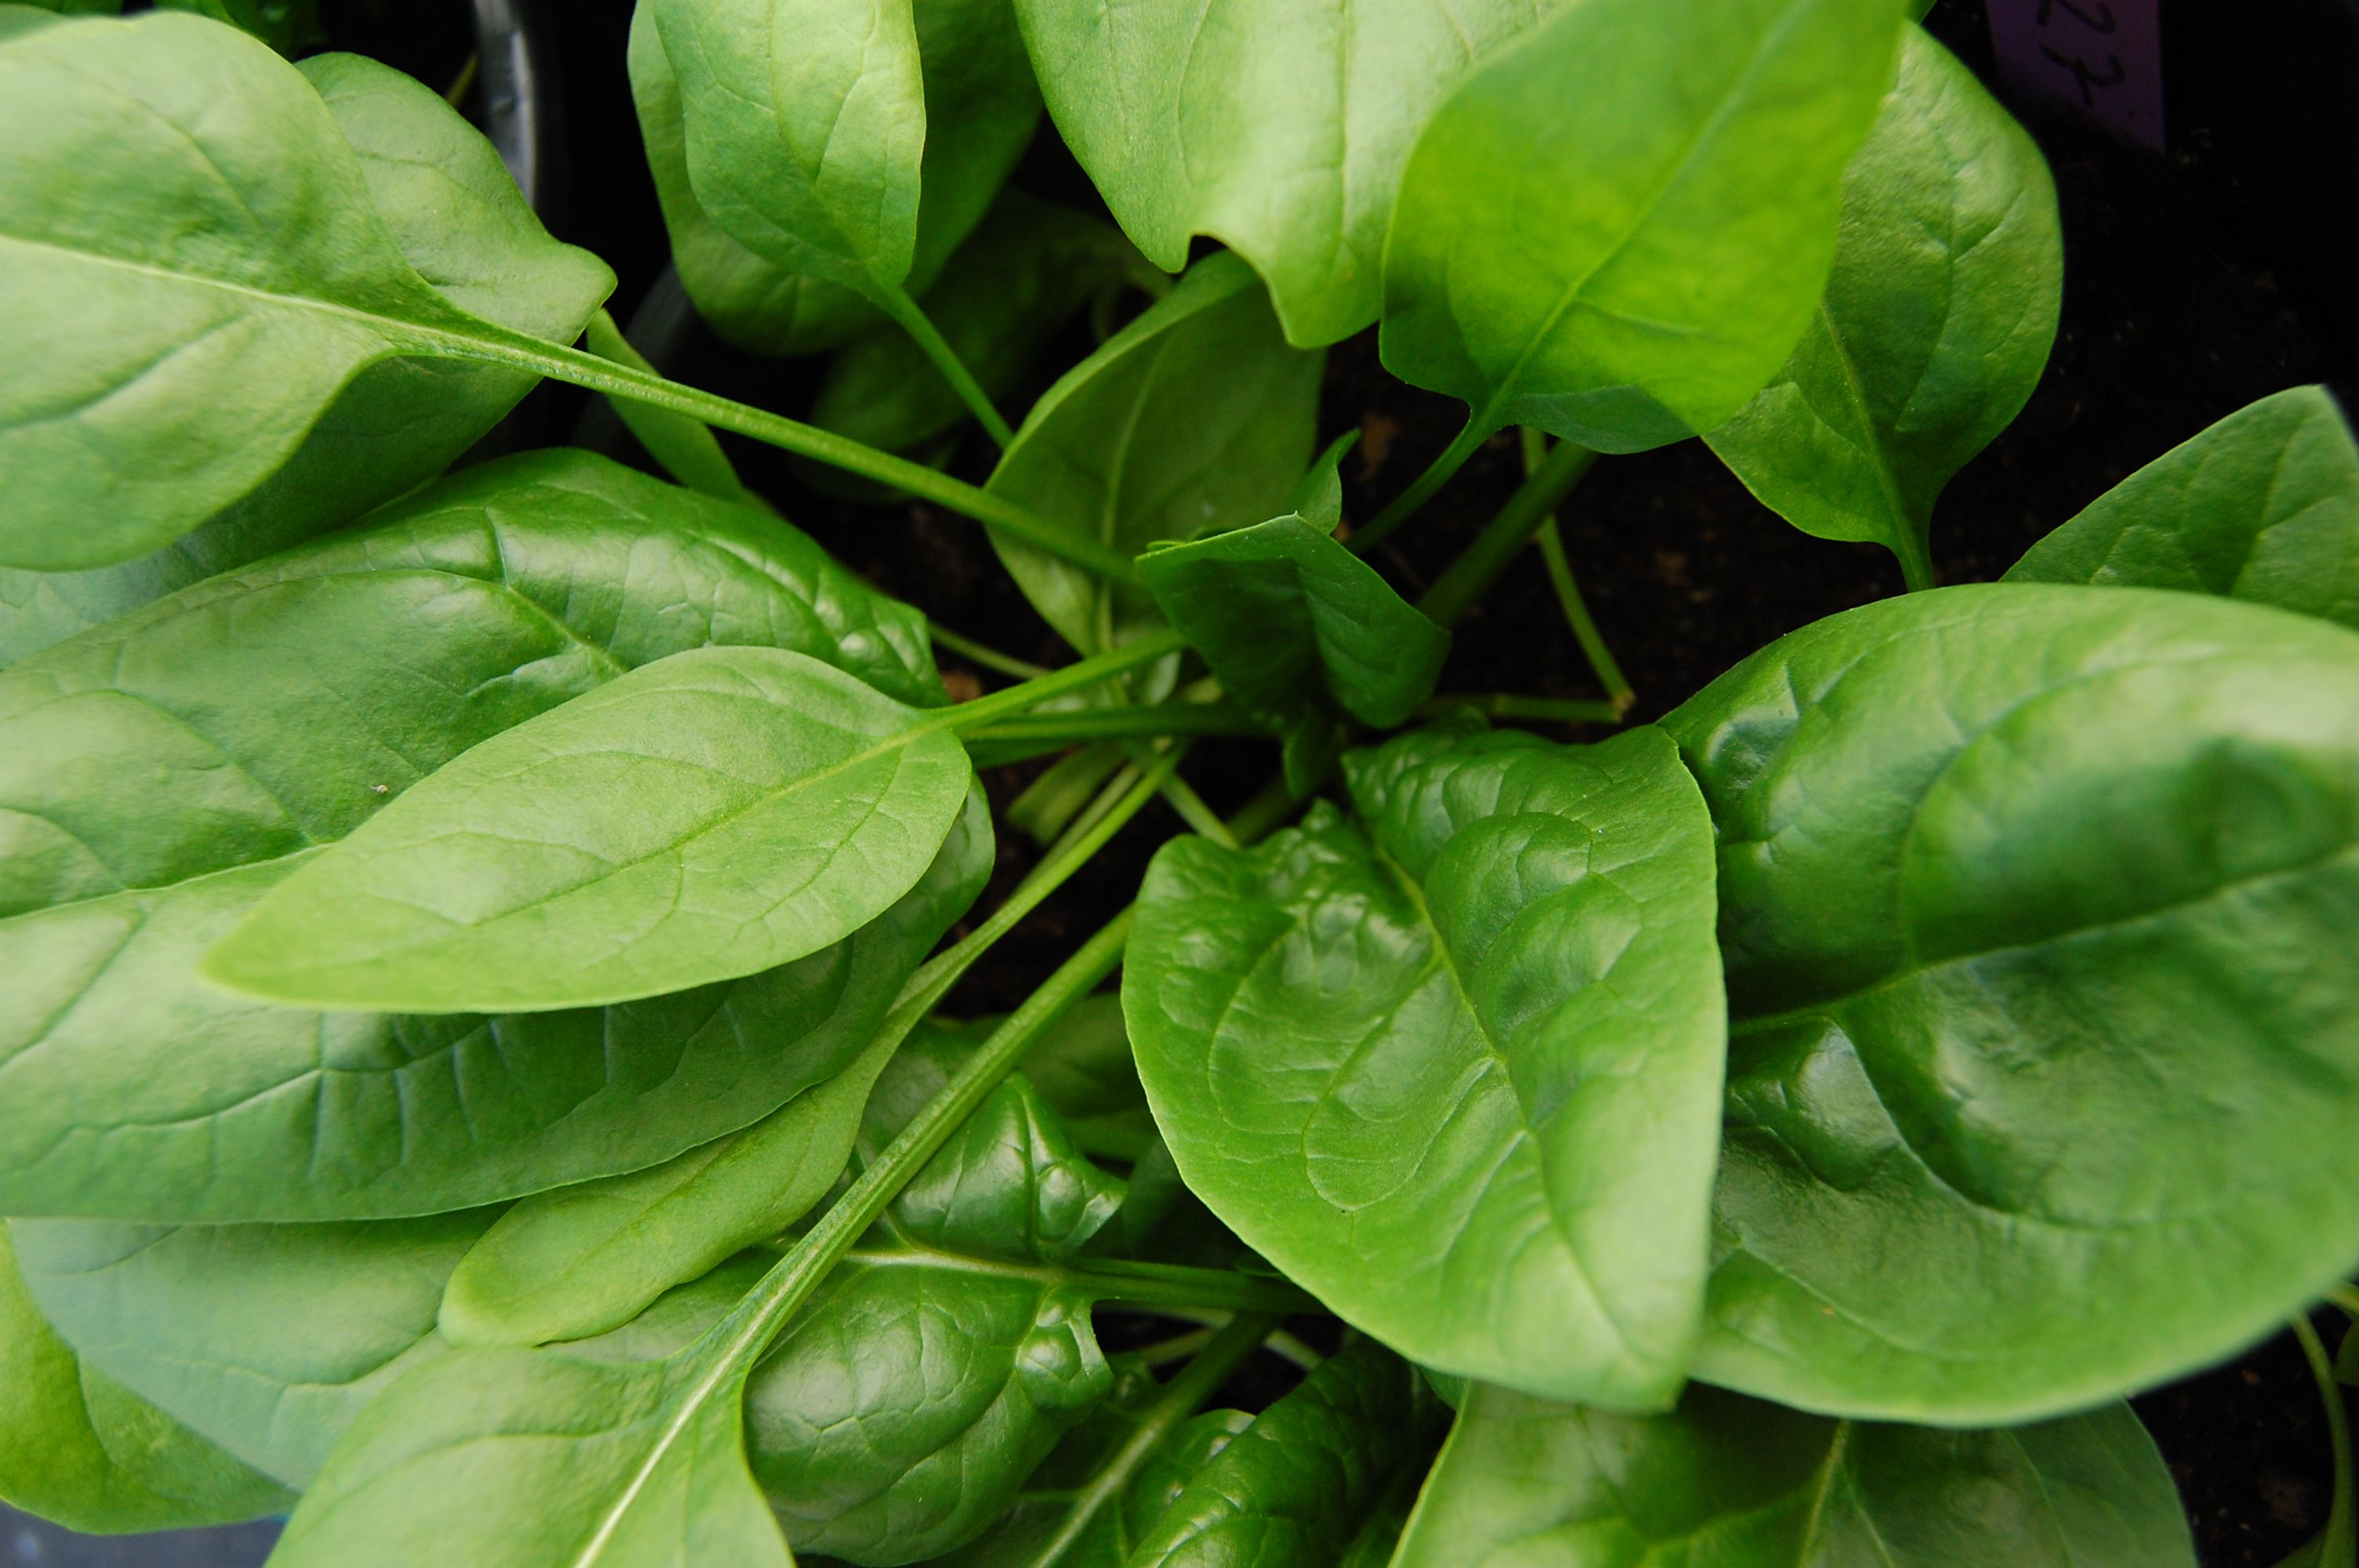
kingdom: Plantae
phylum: Tracheophyta
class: Magnoliopsida
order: Caryophyllales
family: Amaranthaceae
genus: Spinacia
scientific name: Spinacia oleracea
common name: Spinach
